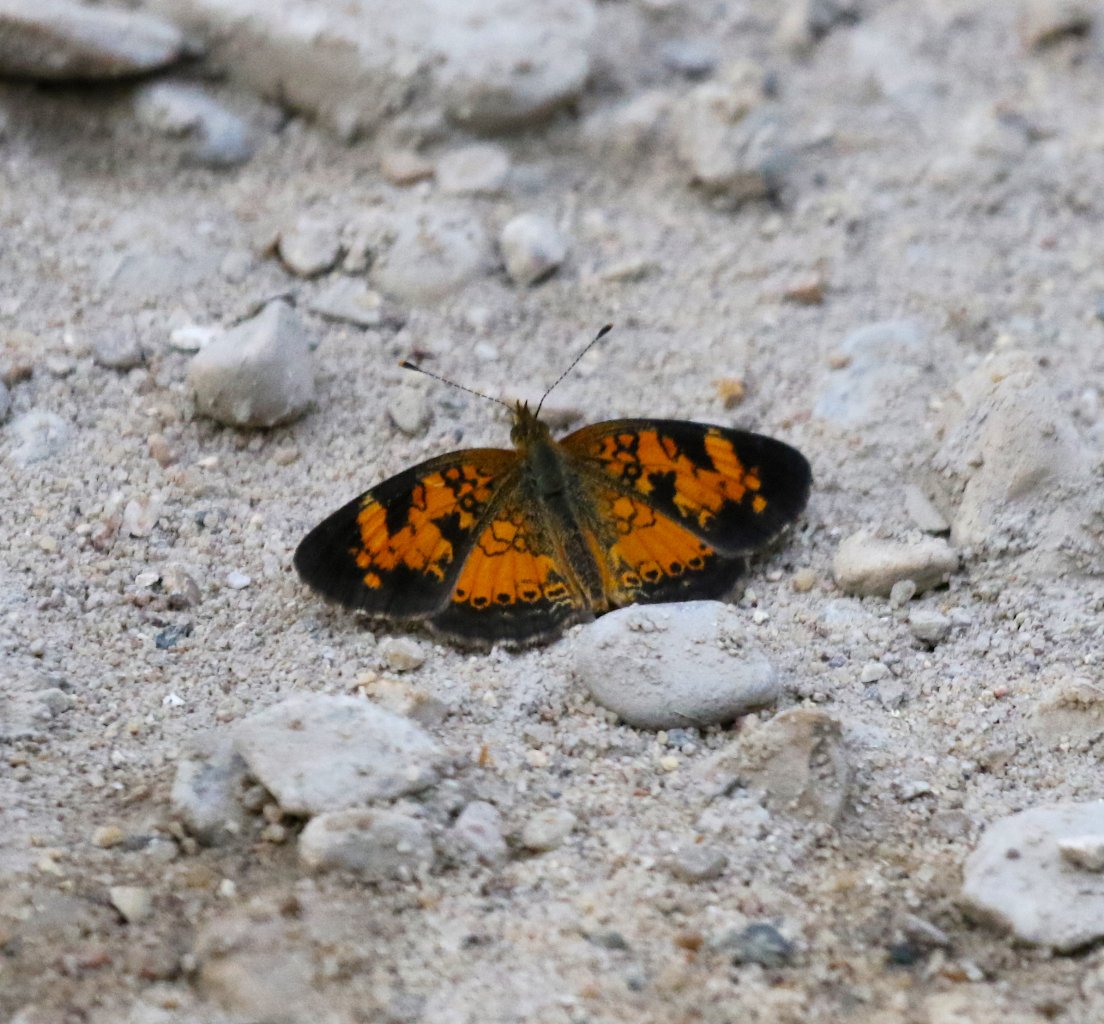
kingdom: Animalia
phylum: Arthropoda
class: Insecta
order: Lepidoptera
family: Nymphalidae
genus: Phyciodes
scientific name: Phyciodes tharos
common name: Pearl Crescent
